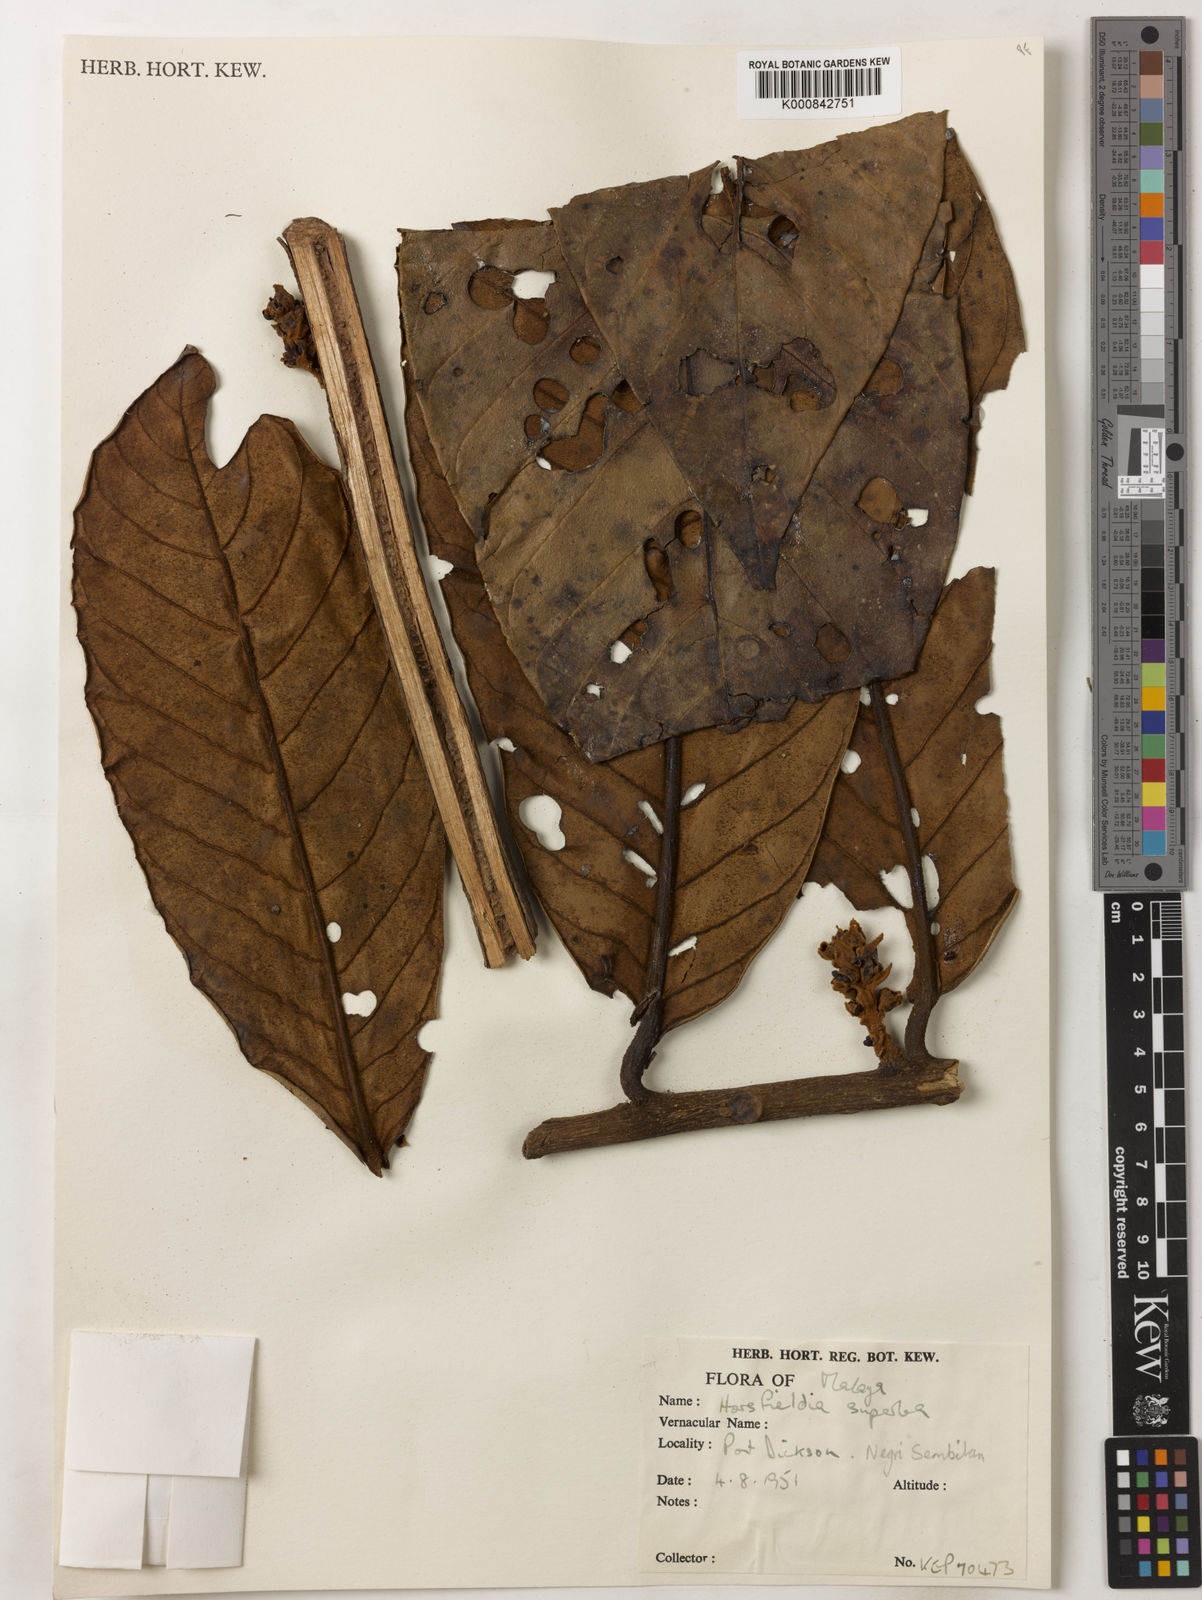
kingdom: Plantae
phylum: Tracheophyta
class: Magnoliopsida
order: Magnoliales
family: Myristicaceae
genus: Horsfieldia
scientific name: Horsfieldia superba
